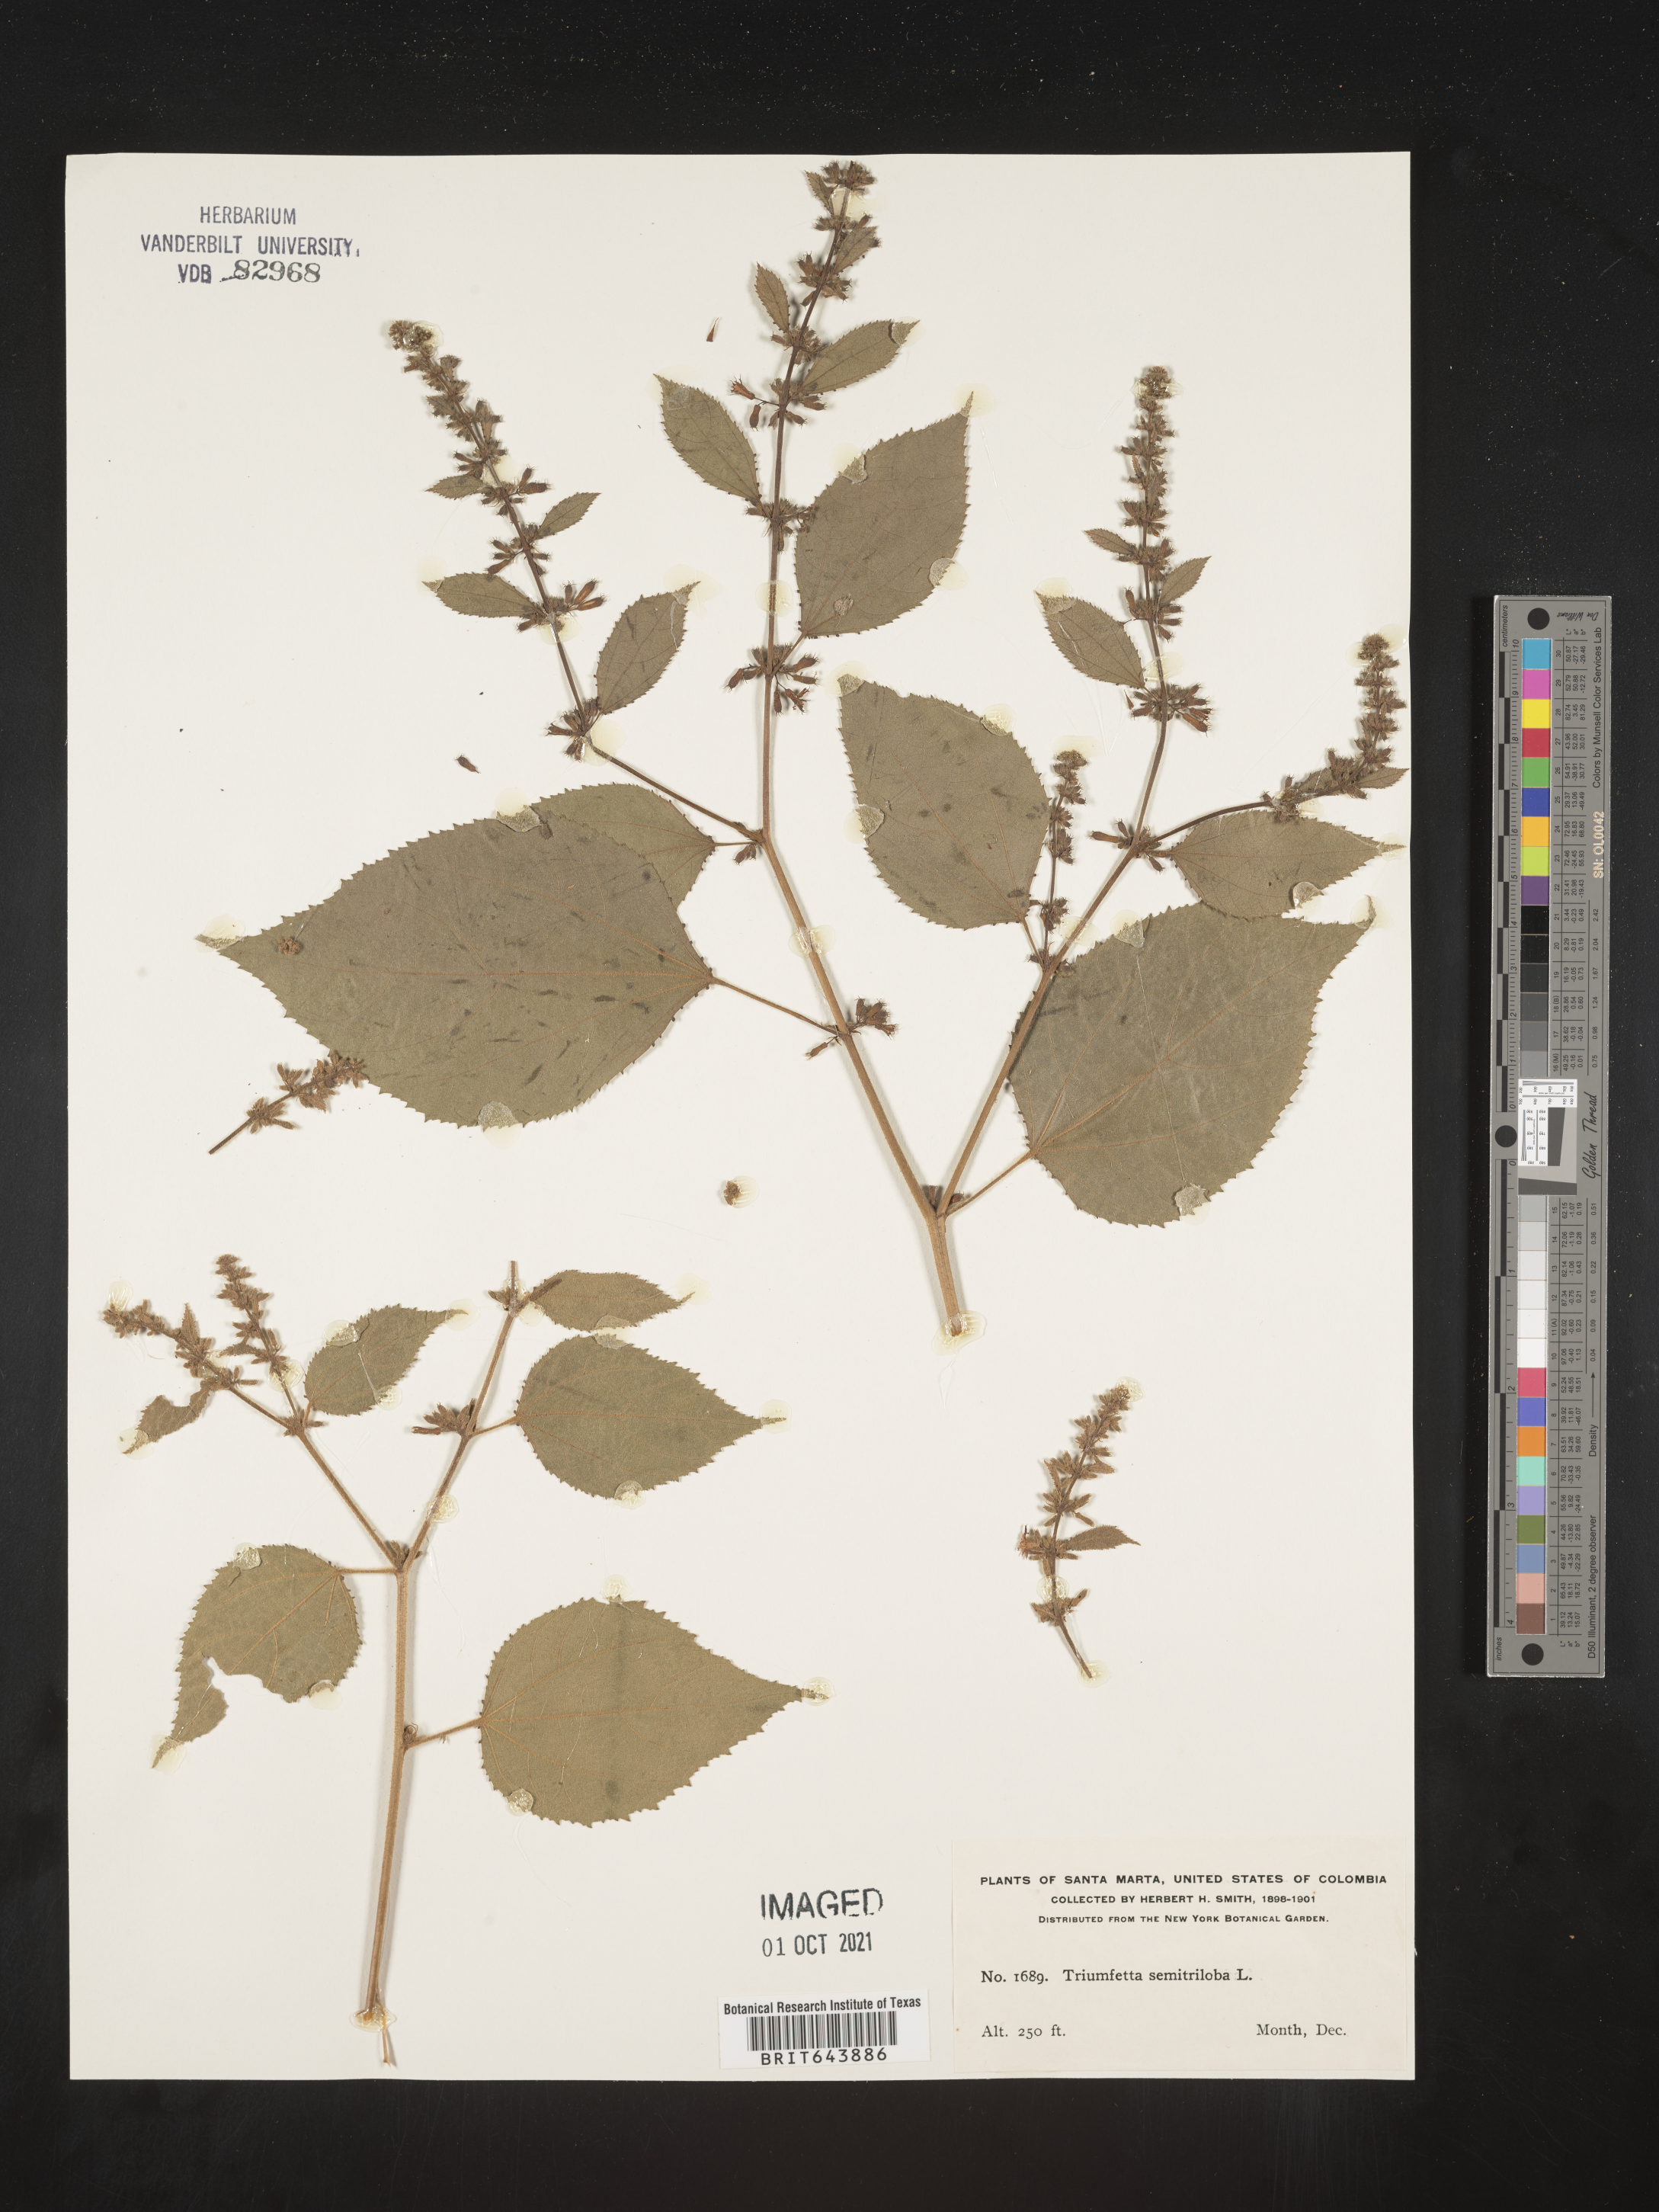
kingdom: Plantae
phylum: Tracheophyta
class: Magnoliopsida
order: Malvales
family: Malvaceae
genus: Triumfetta
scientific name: Triumfetta
